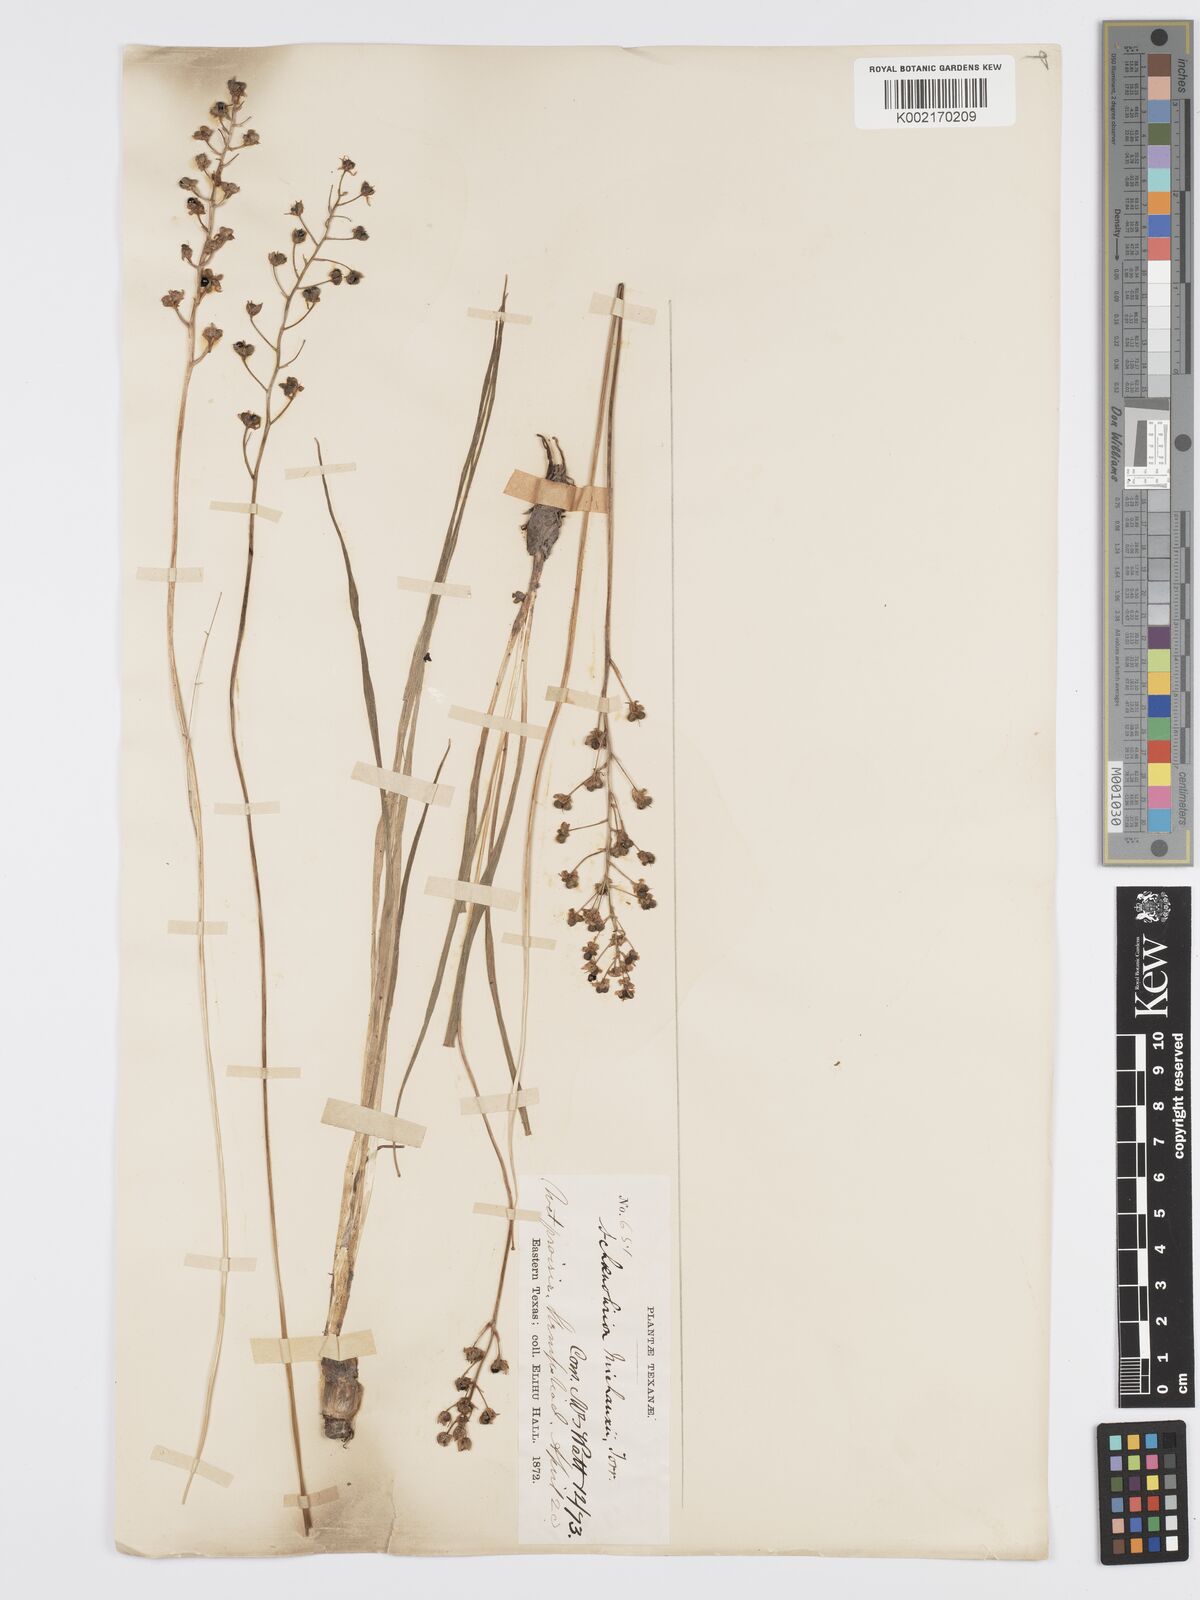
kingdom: Plantae
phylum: Tracheophyta
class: Liliopsida
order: Asparagales
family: Asparagaceae
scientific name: Asparagaceae
